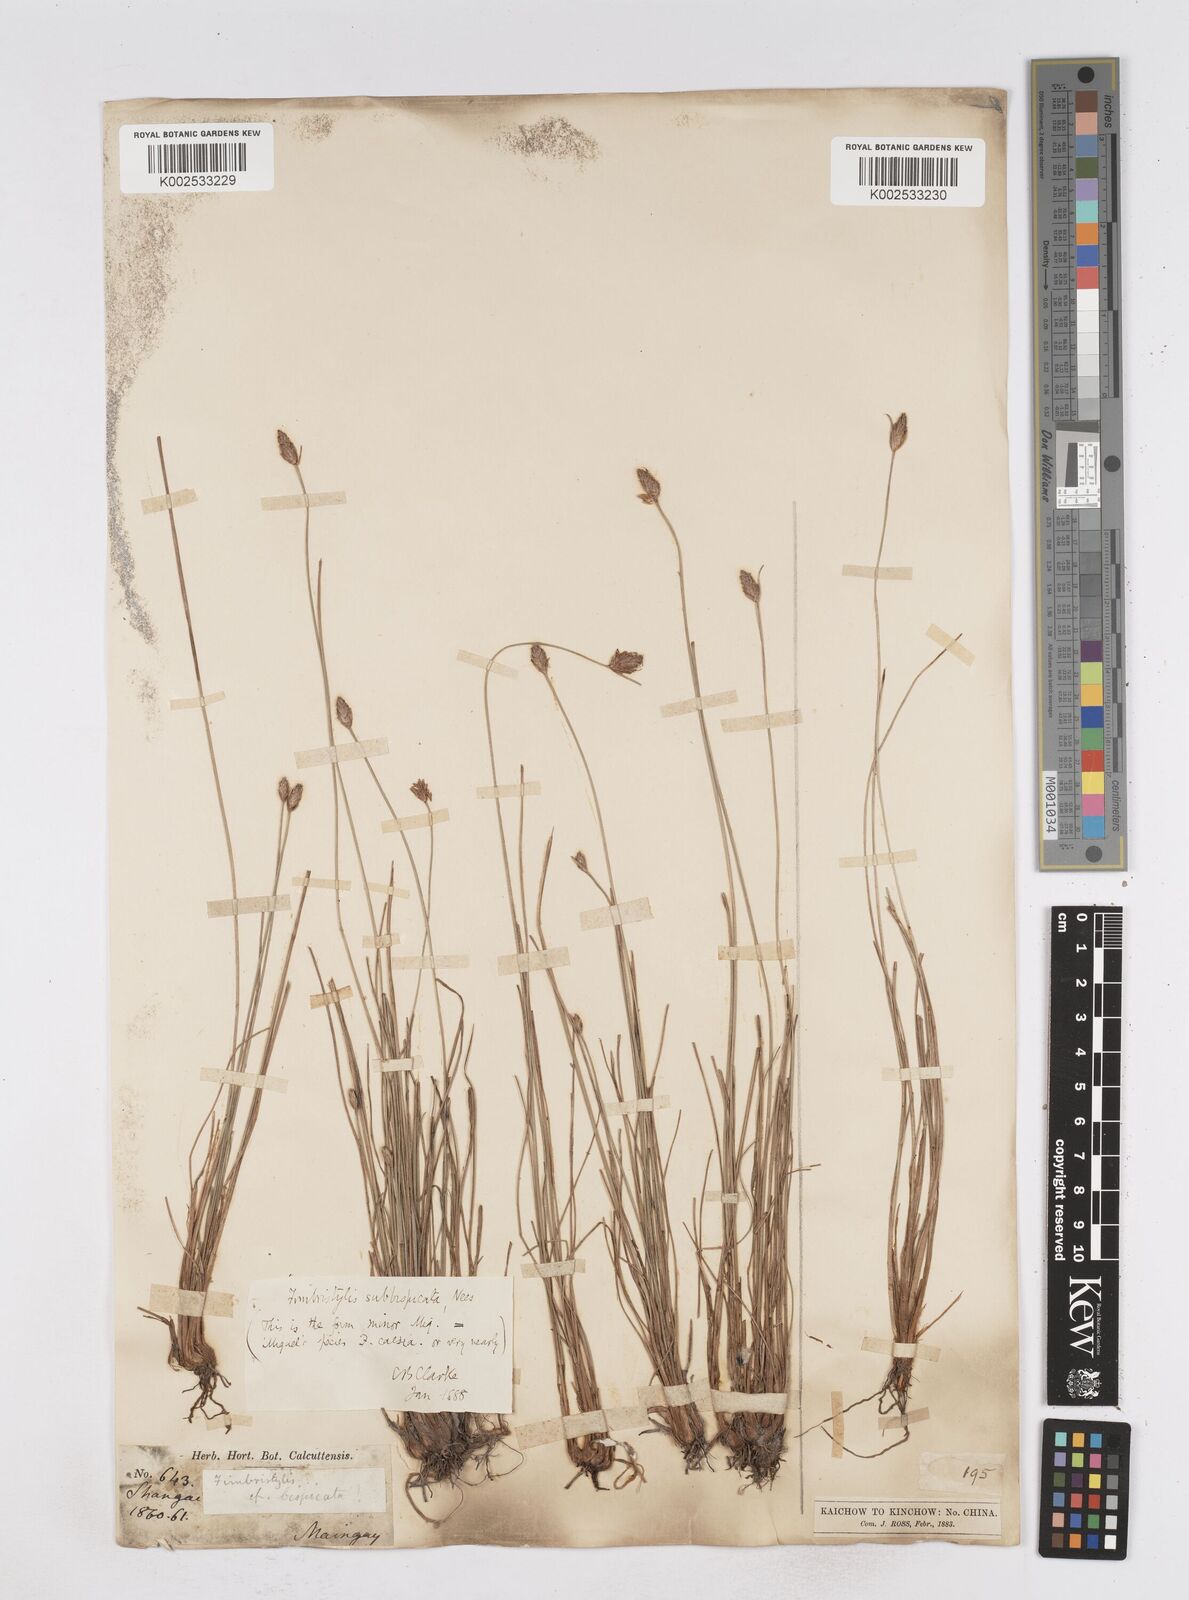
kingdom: Plantae
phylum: Tracheophyta
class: Liliopsida
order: Poales
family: Cyperaceae
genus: Fimbristylis
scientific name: Fimbristylis tristachya
